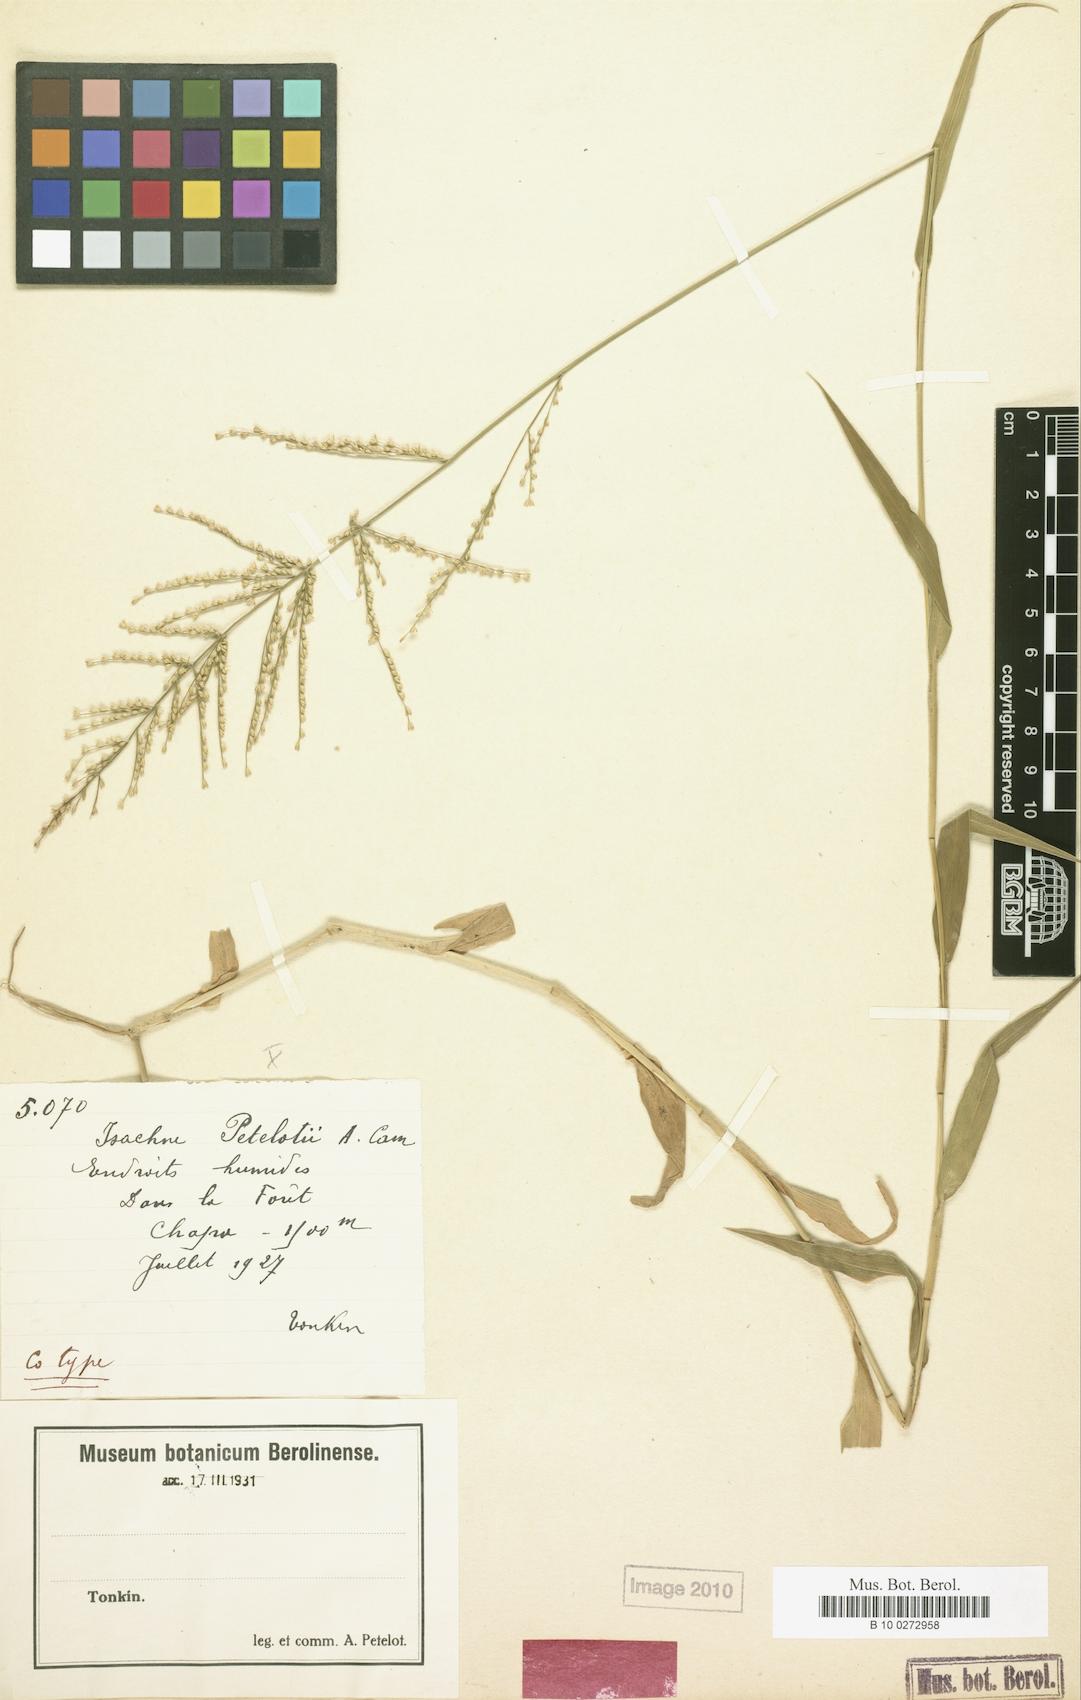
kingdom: Plantae
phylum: Tracheophyta
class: Liliopsida
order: Poales
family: Poaceae
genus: Isachne
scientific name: Isachne petelotii
